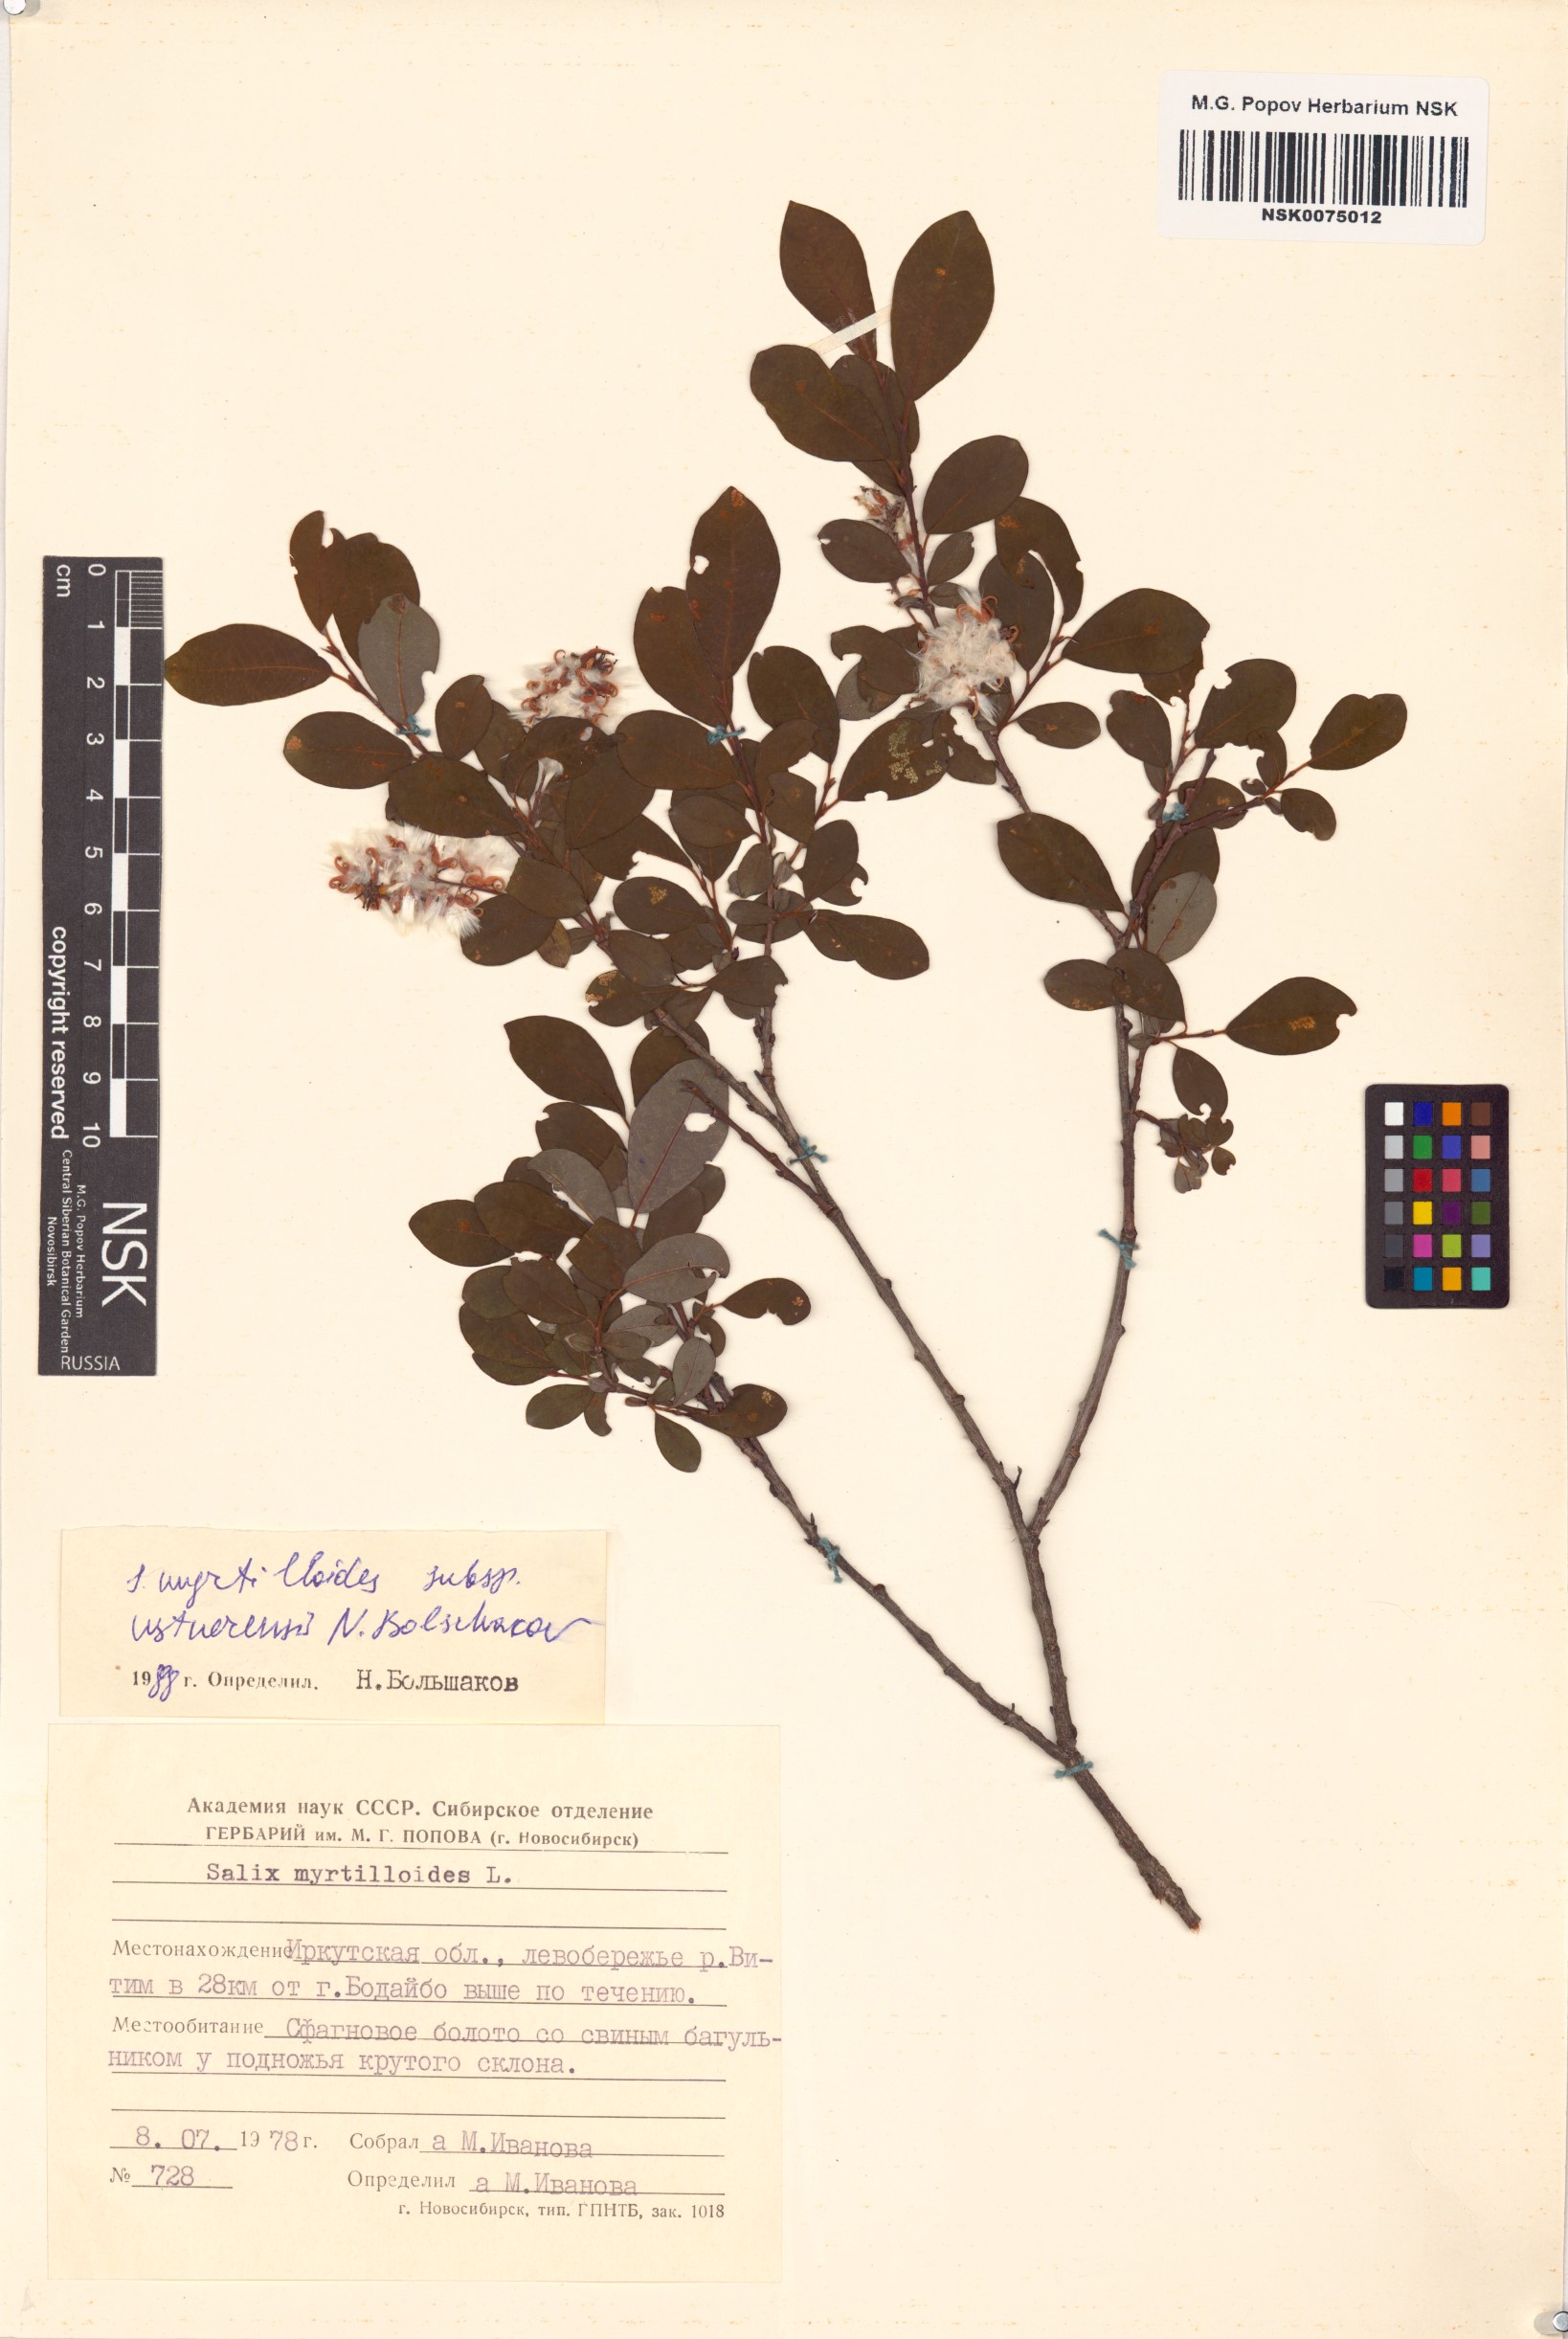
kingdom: Plantae
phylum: Tracheophyta
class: Magnoliopsida
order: Malpighiales
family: Salicaceae
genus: Salix
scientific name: Salix ustnerensis
